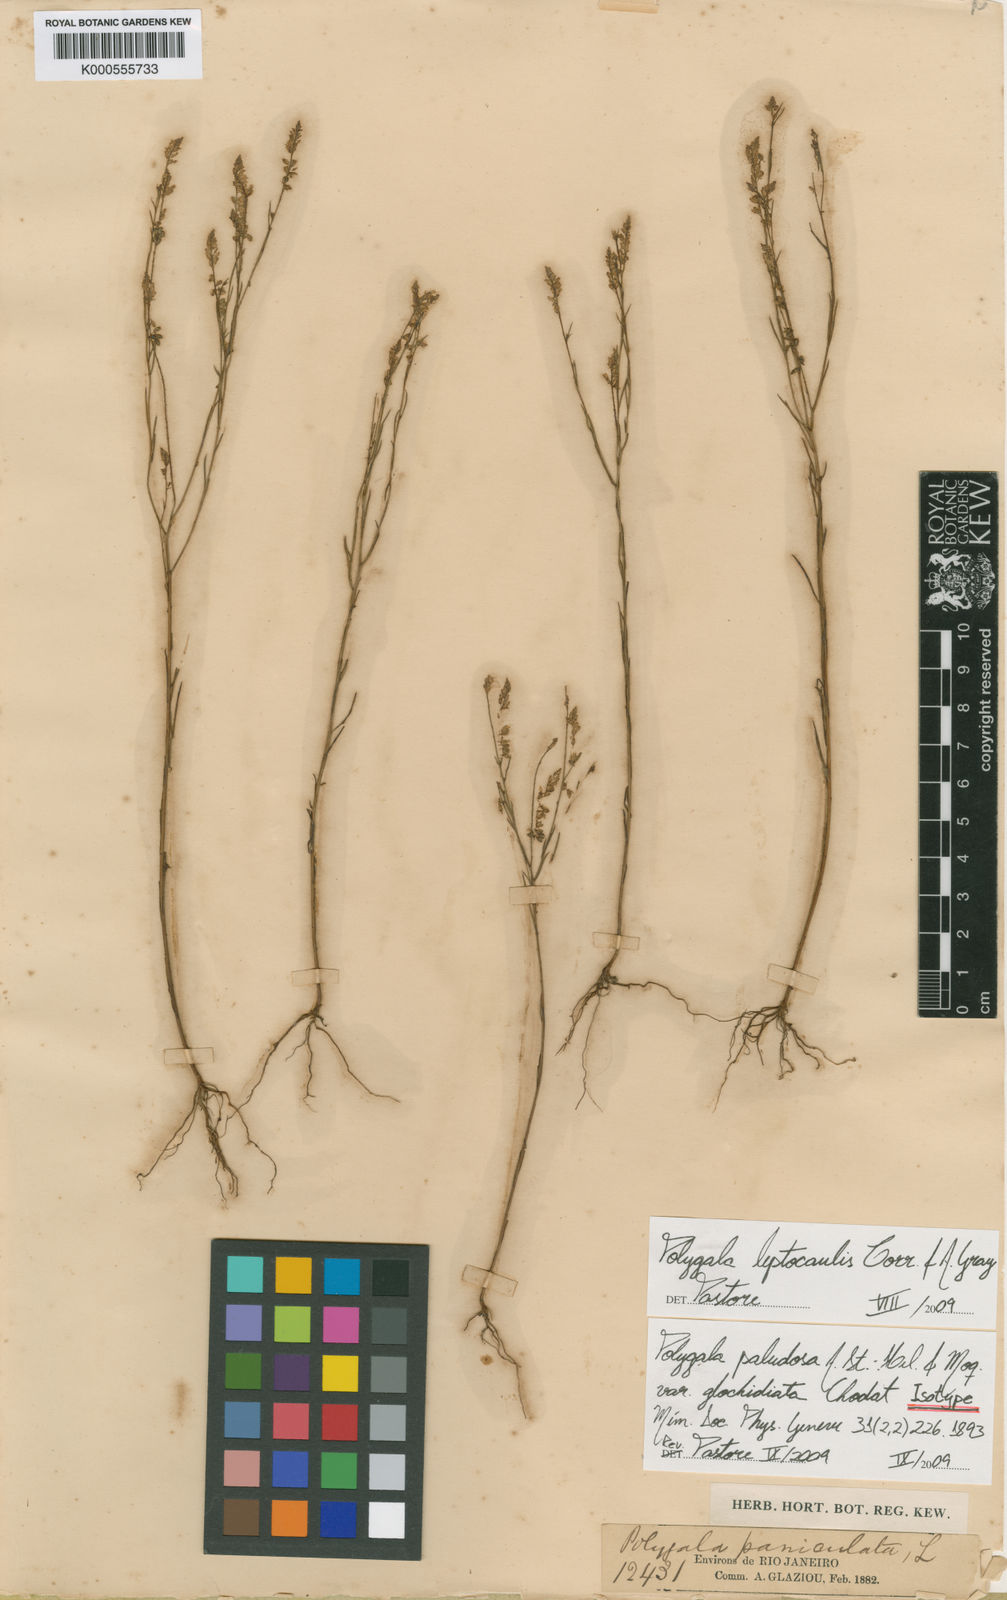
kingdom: Plantae
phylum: Tracheophyta
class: Magnoliopsida
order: Fabales
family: Polygalaceae
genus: Polygala
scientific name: Polygala tenella
